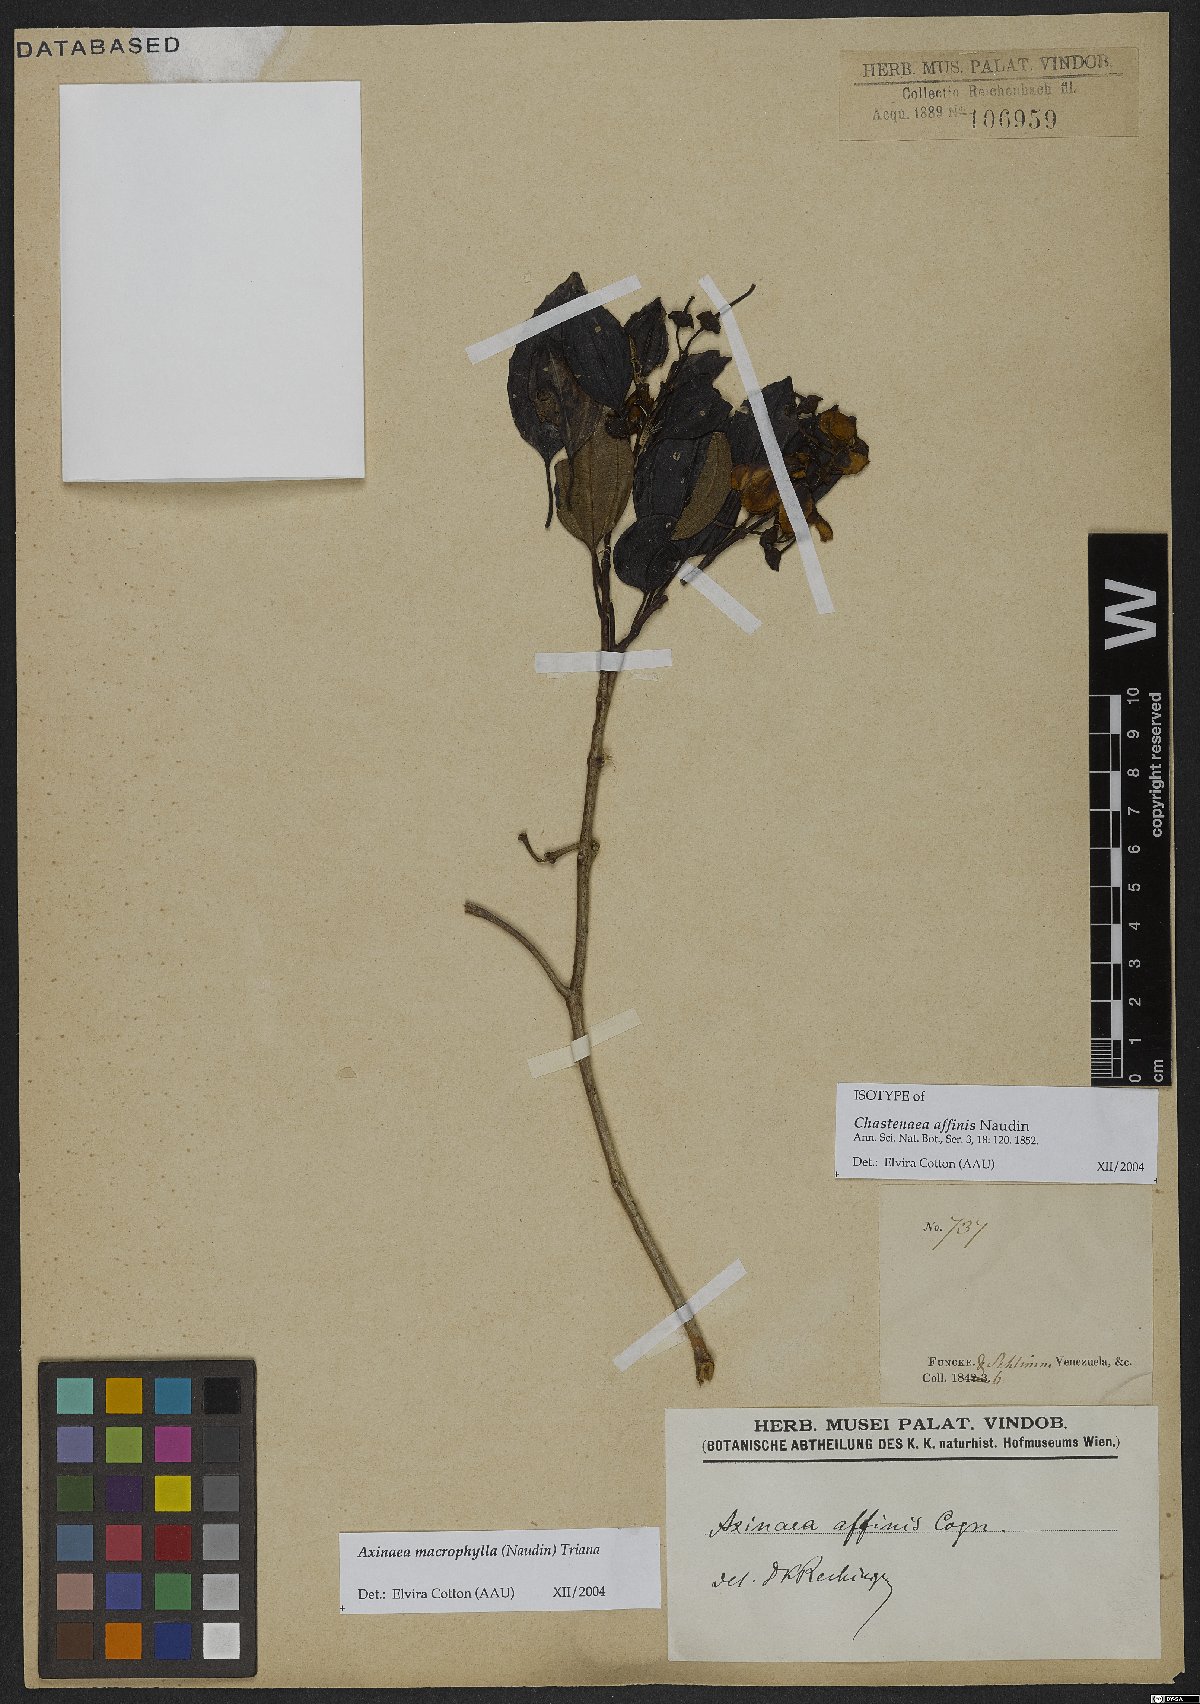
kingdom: Plantae
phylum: Tracheophyta
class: Magnoliopsida
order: Myrtales
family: Melastomataceae
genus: Axinaea
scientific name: Axinaea macrophylla
